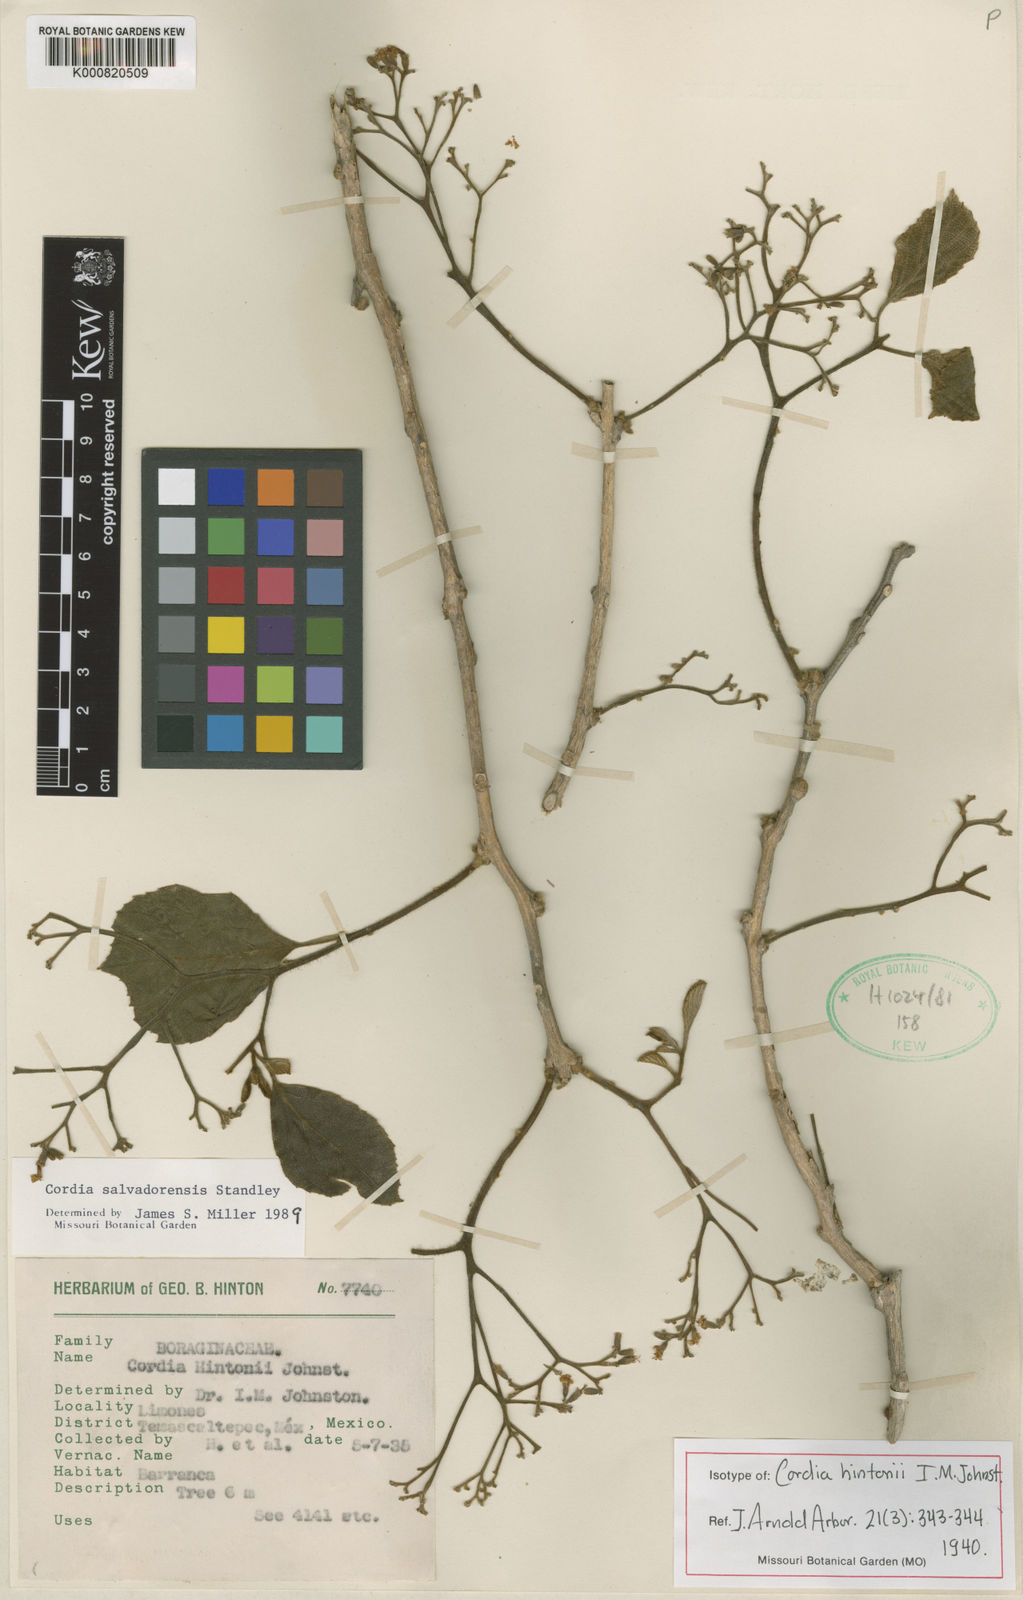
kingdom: Plantae
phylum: Tracheophyta
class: Magnoliopsida
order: Boraginales
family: Cordiaceae
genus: Cordia
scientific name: Cordia salvadorensis
